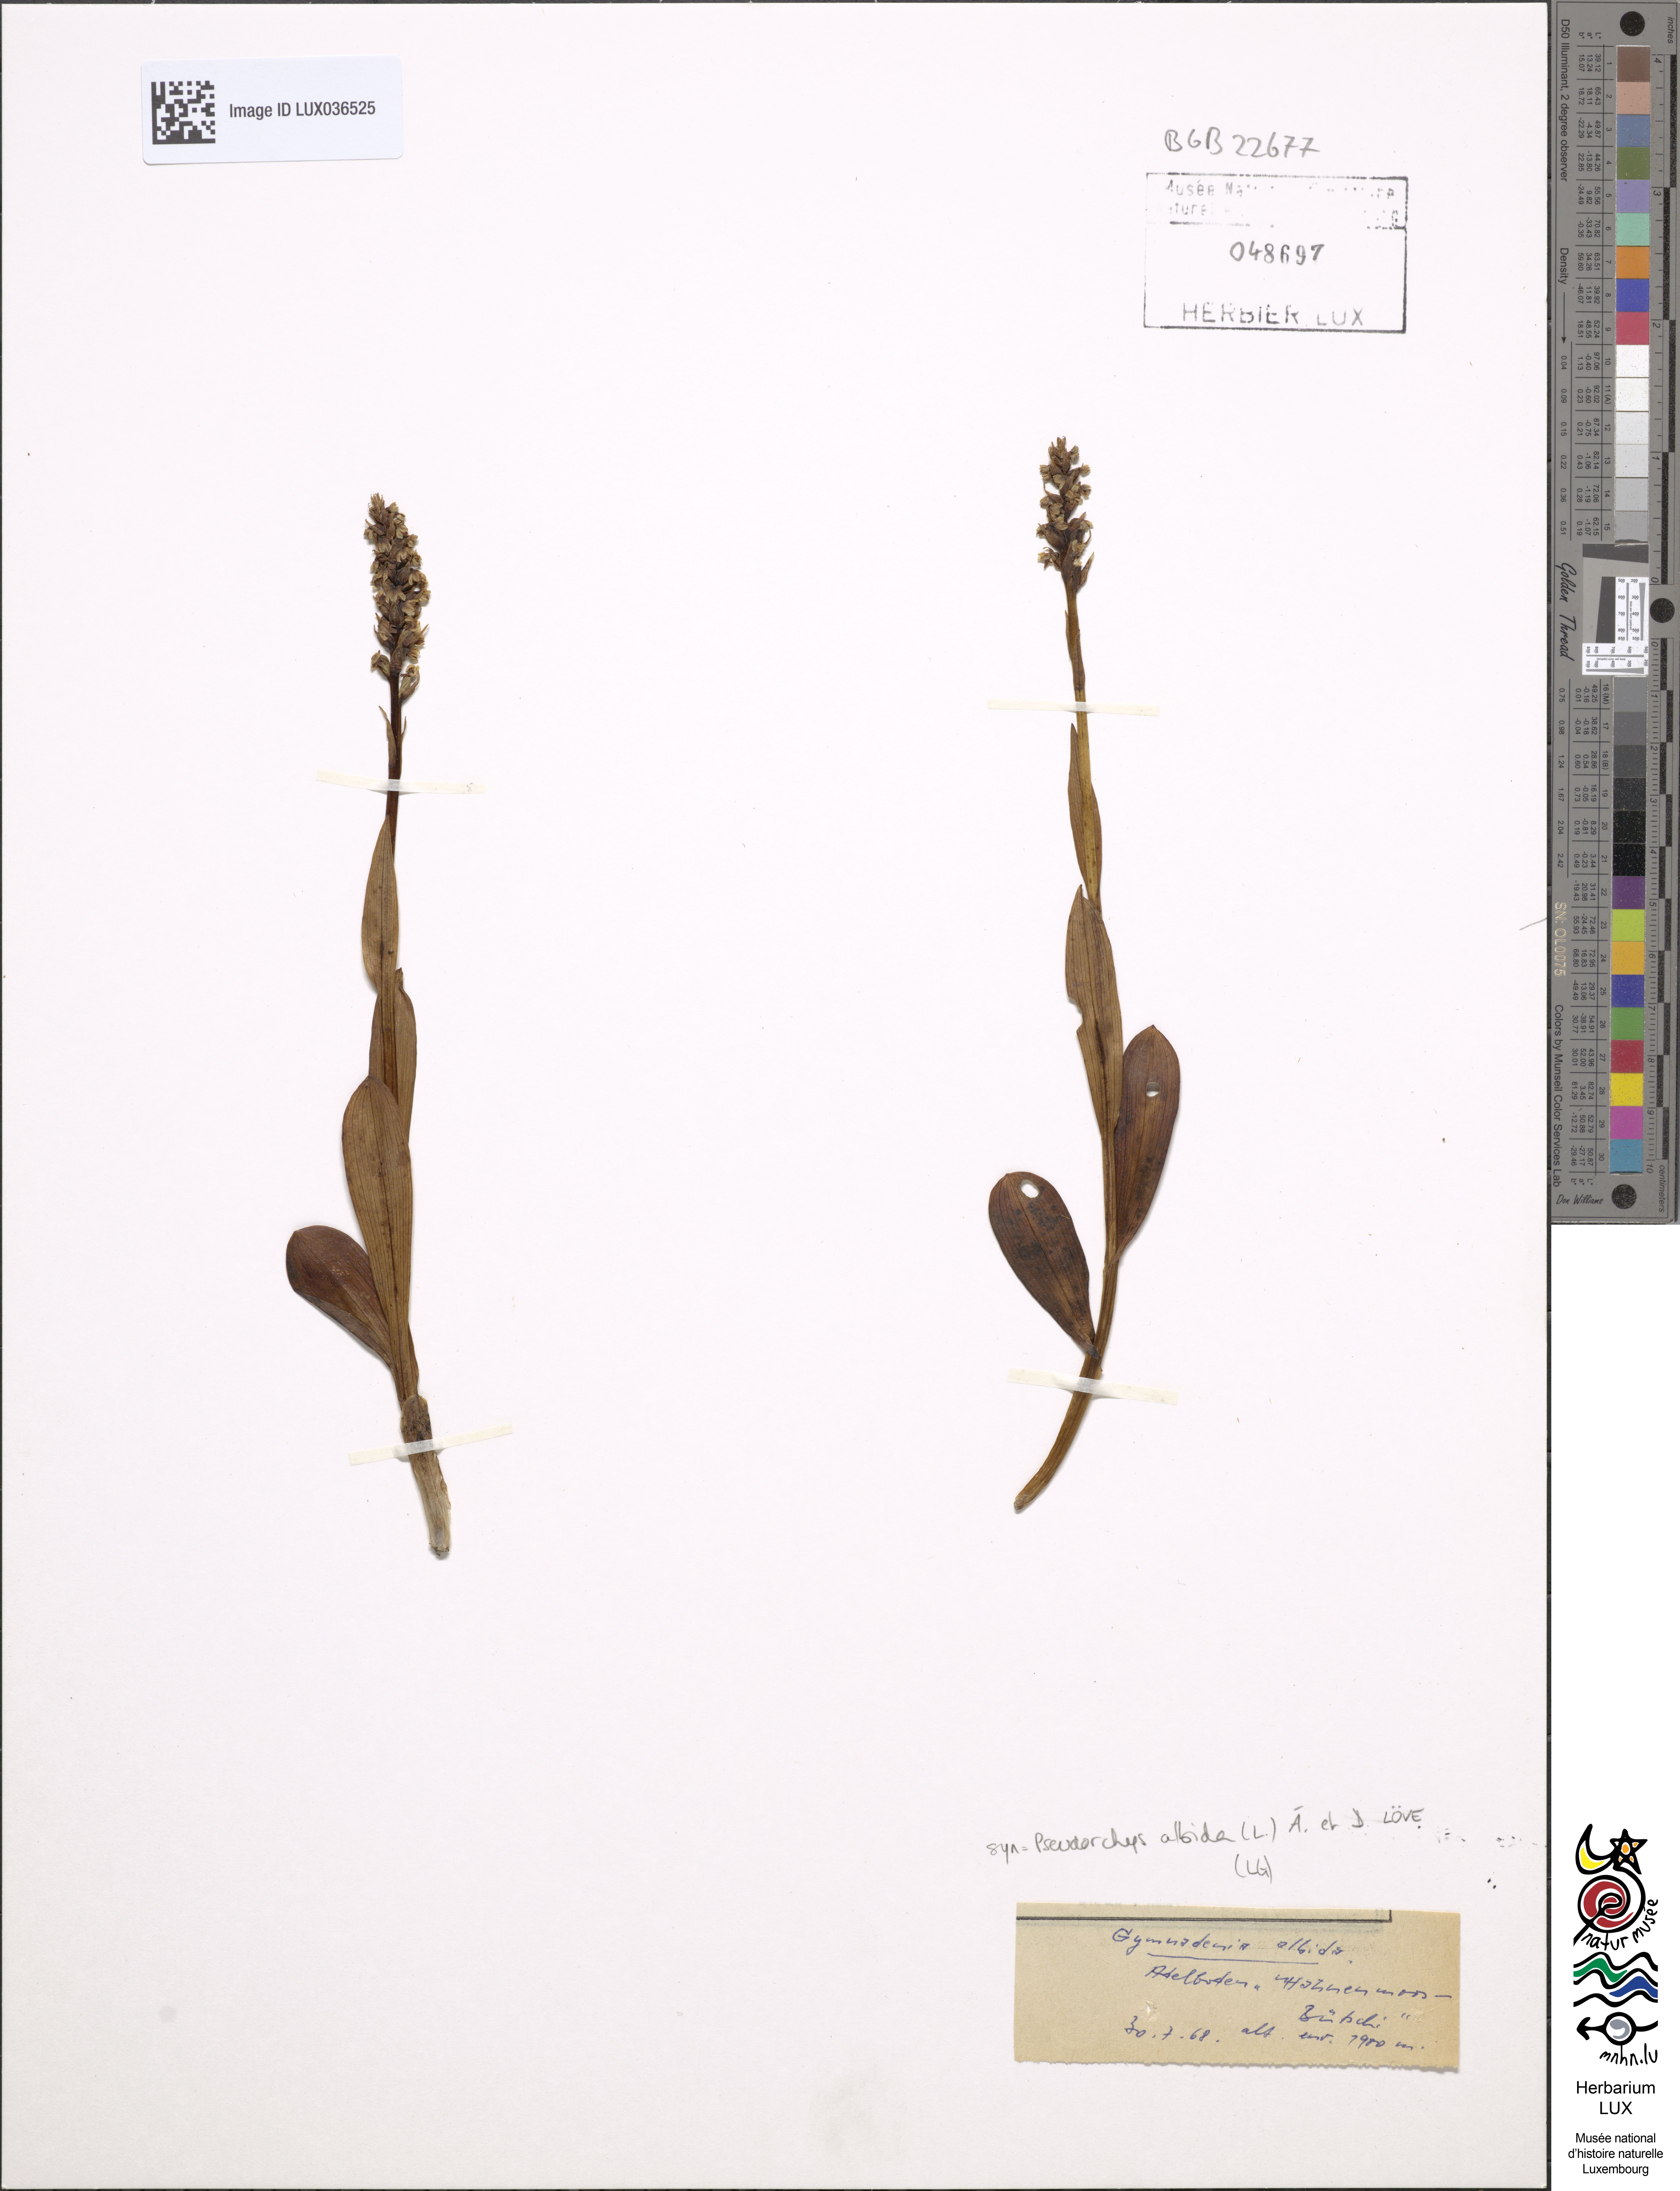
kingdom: Plantae
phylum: Tracheophyta
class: Liliopsida
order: Asparagales
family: Orchidaceae
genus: Pseudorchis
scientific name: Pseudorchis albida
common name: Small-white orchid
